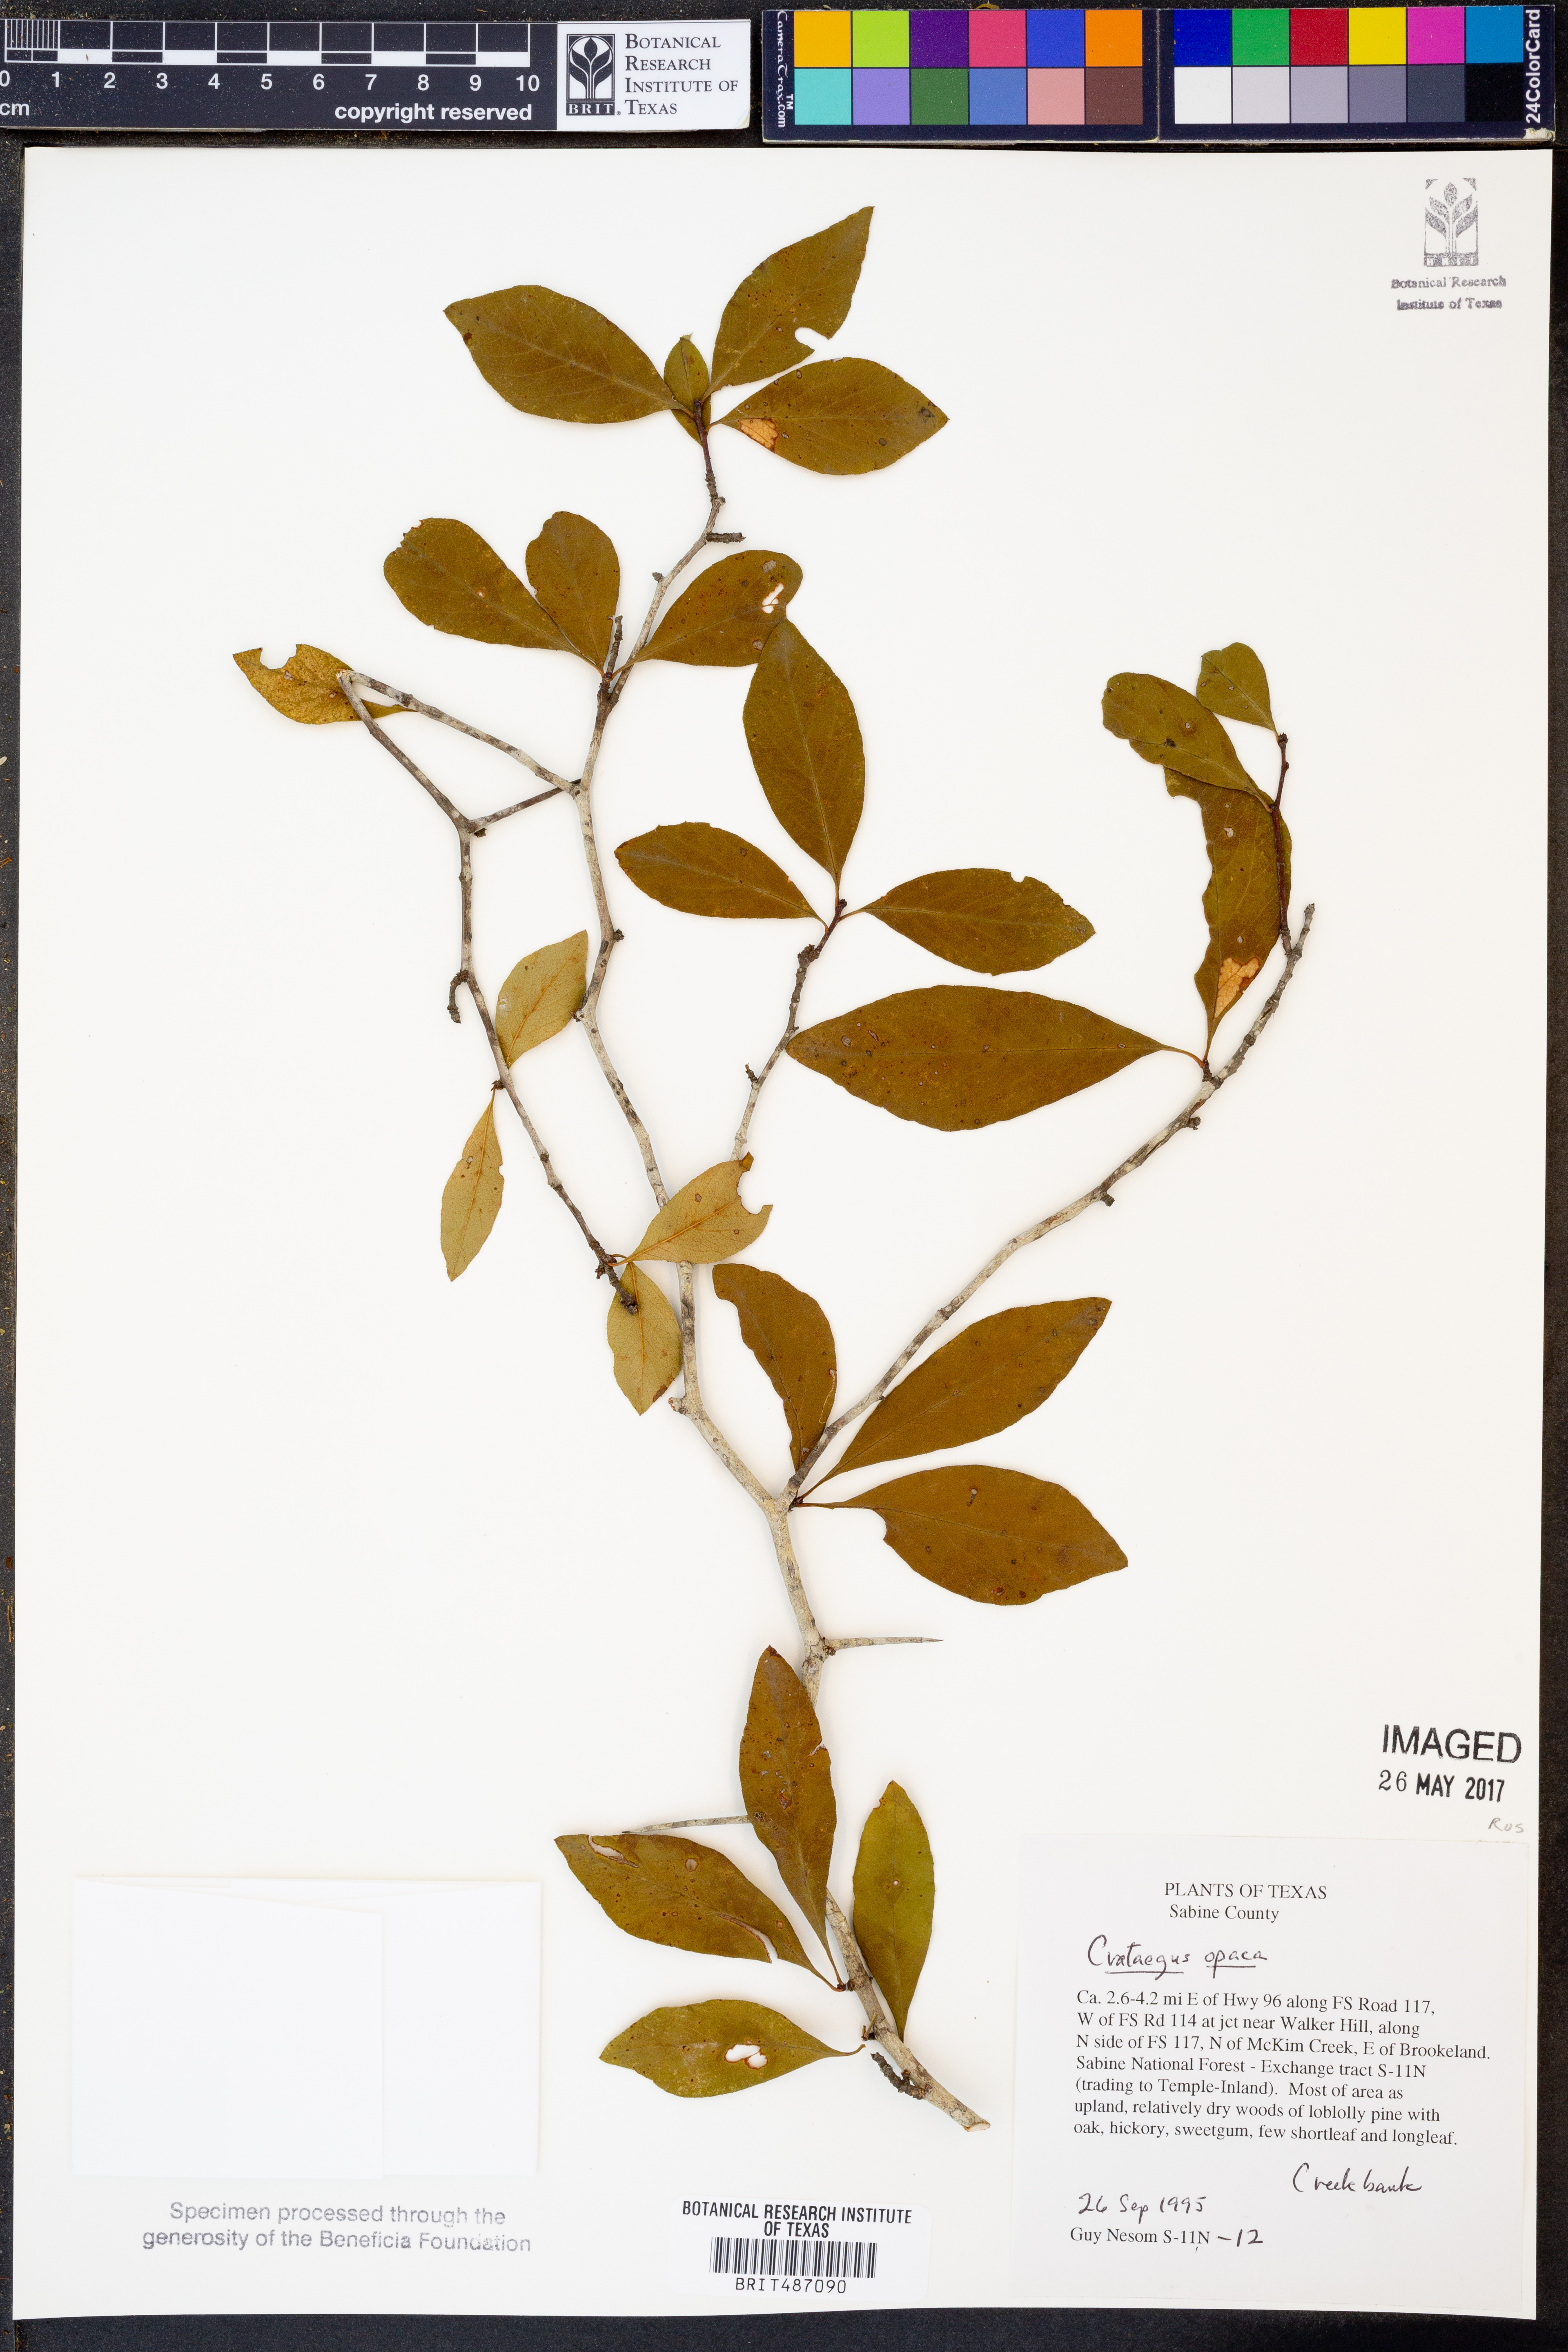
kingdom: Plantae
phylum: Tracheophyta
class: Magnoliopsida
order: Rosales
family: Rosaceae
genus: Crataegus
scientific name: Crataegus opaca
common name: Apple haw
